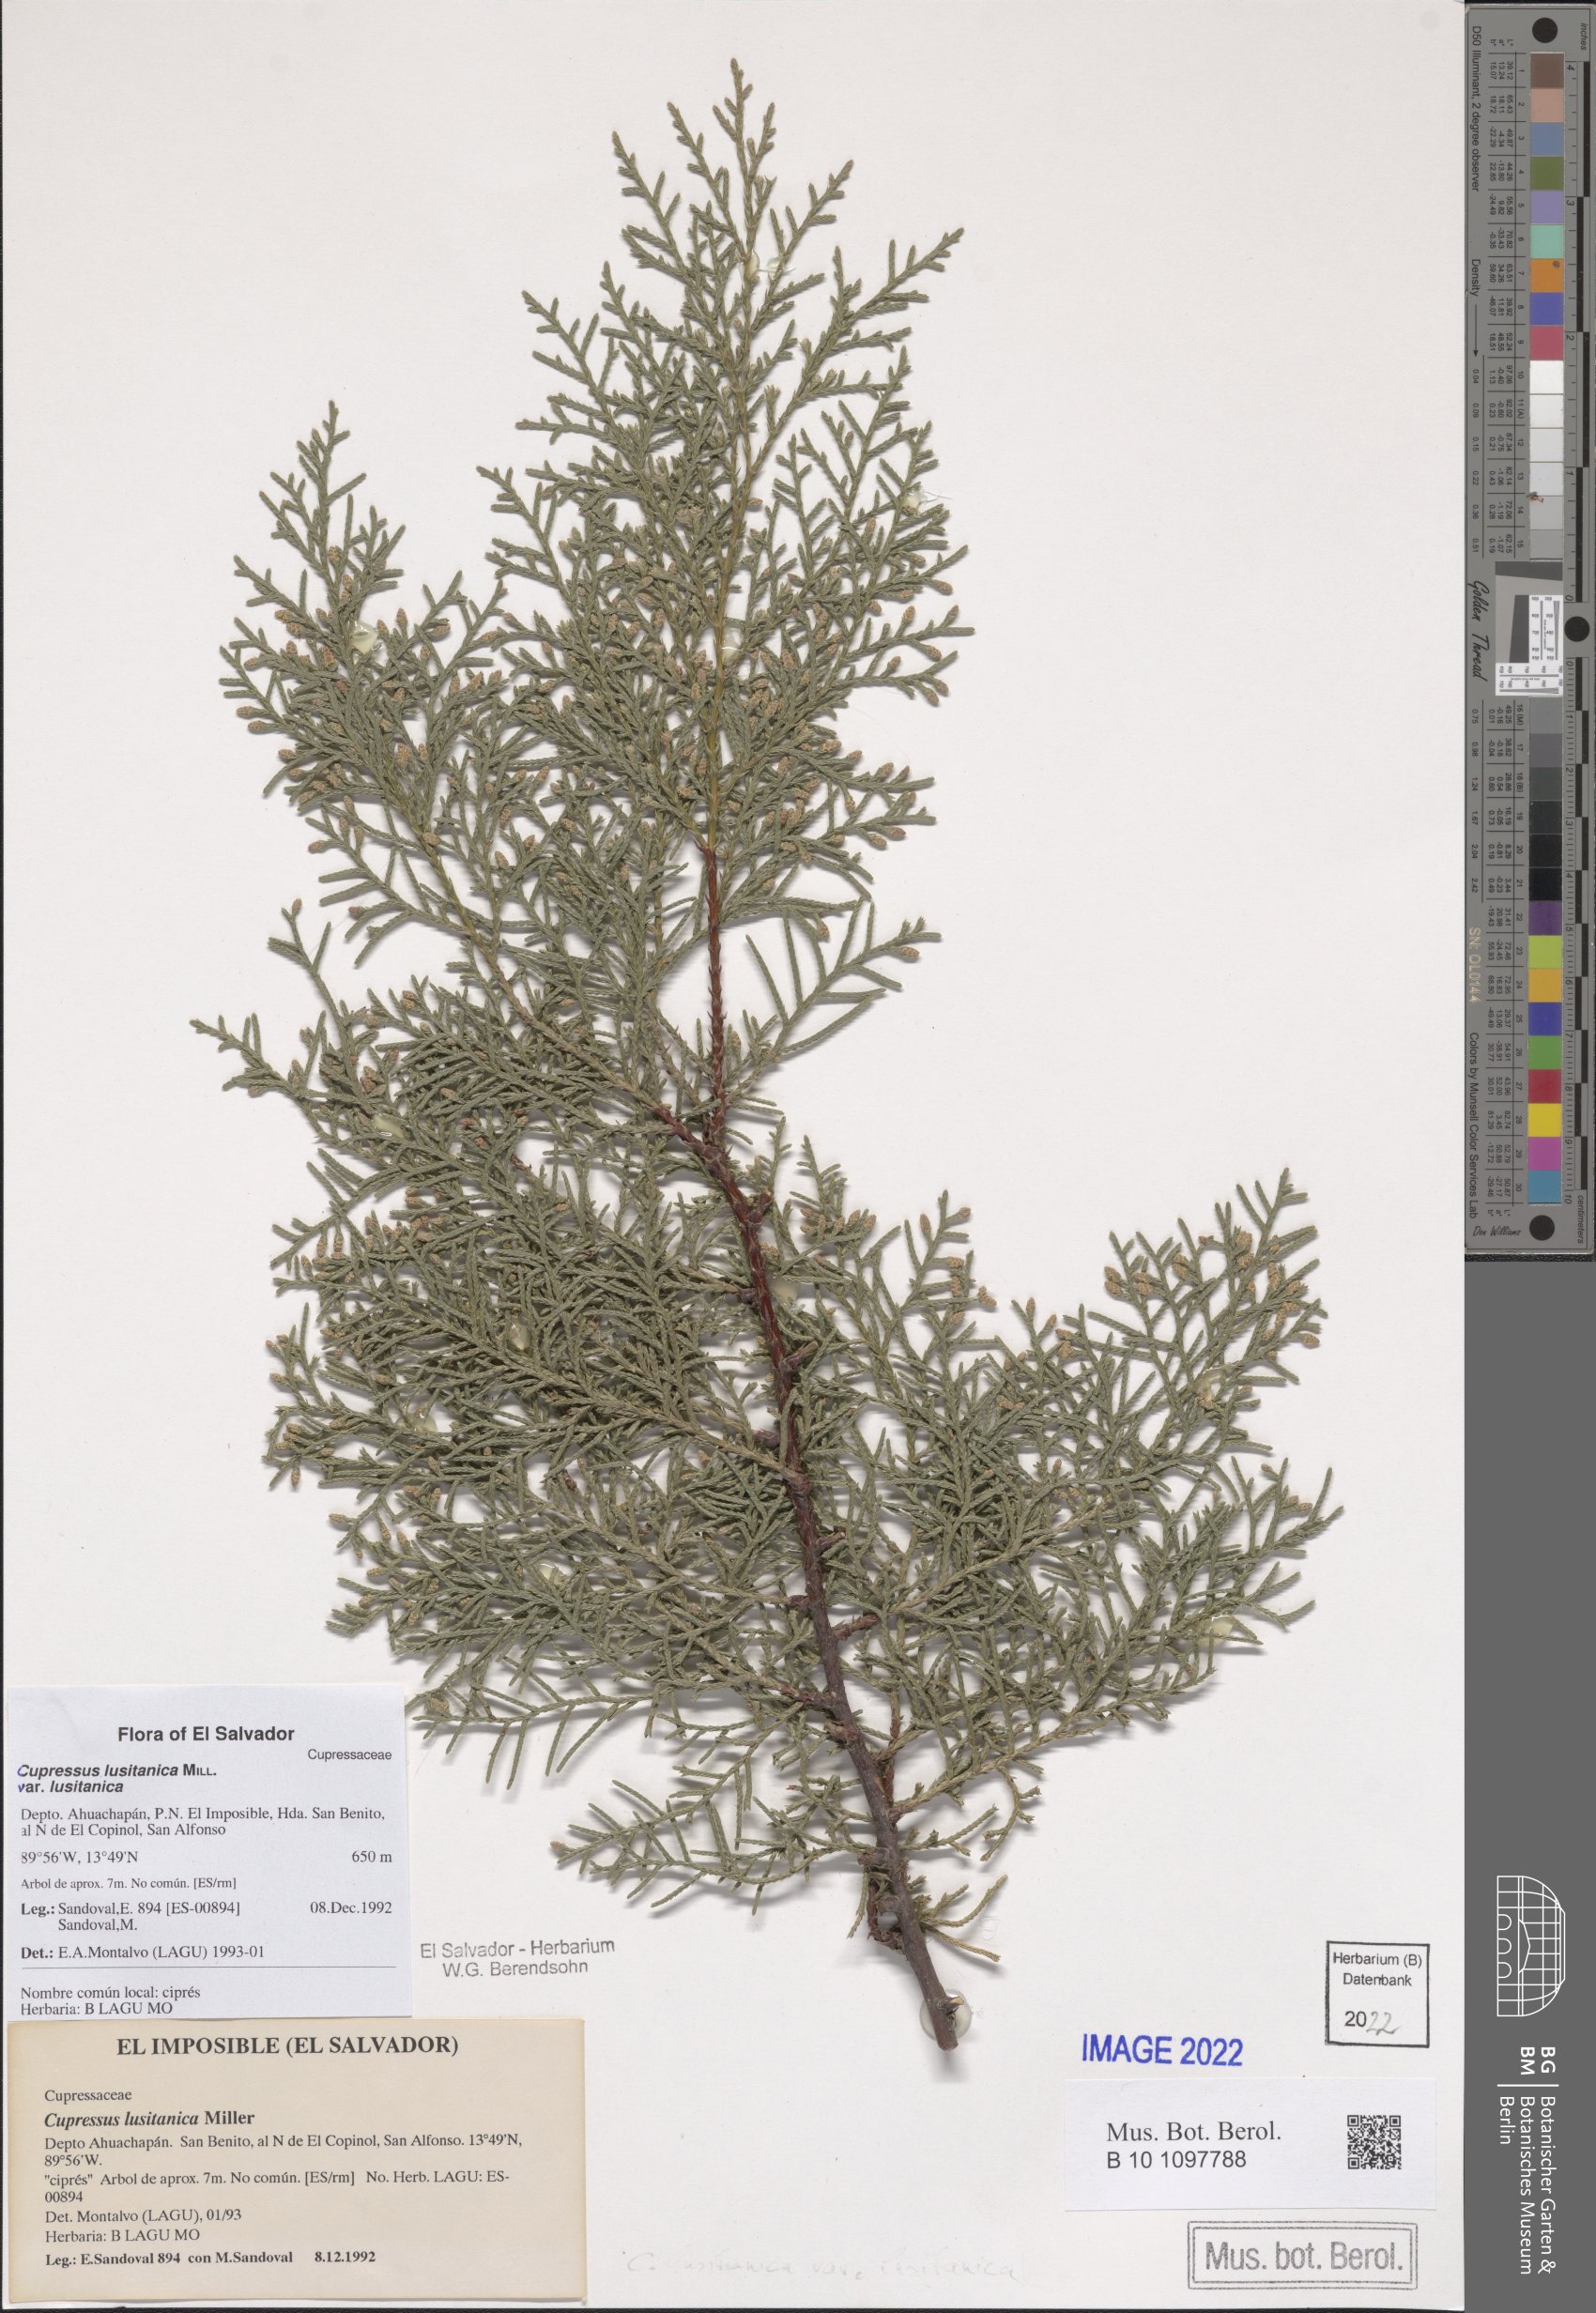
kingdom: Plantae
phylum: Tracheophyta
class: Pinopsida
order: Pinales
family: Cupressaceae
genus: Cupressus
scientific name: Cupressus lusitanica
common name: Mexican cypress
